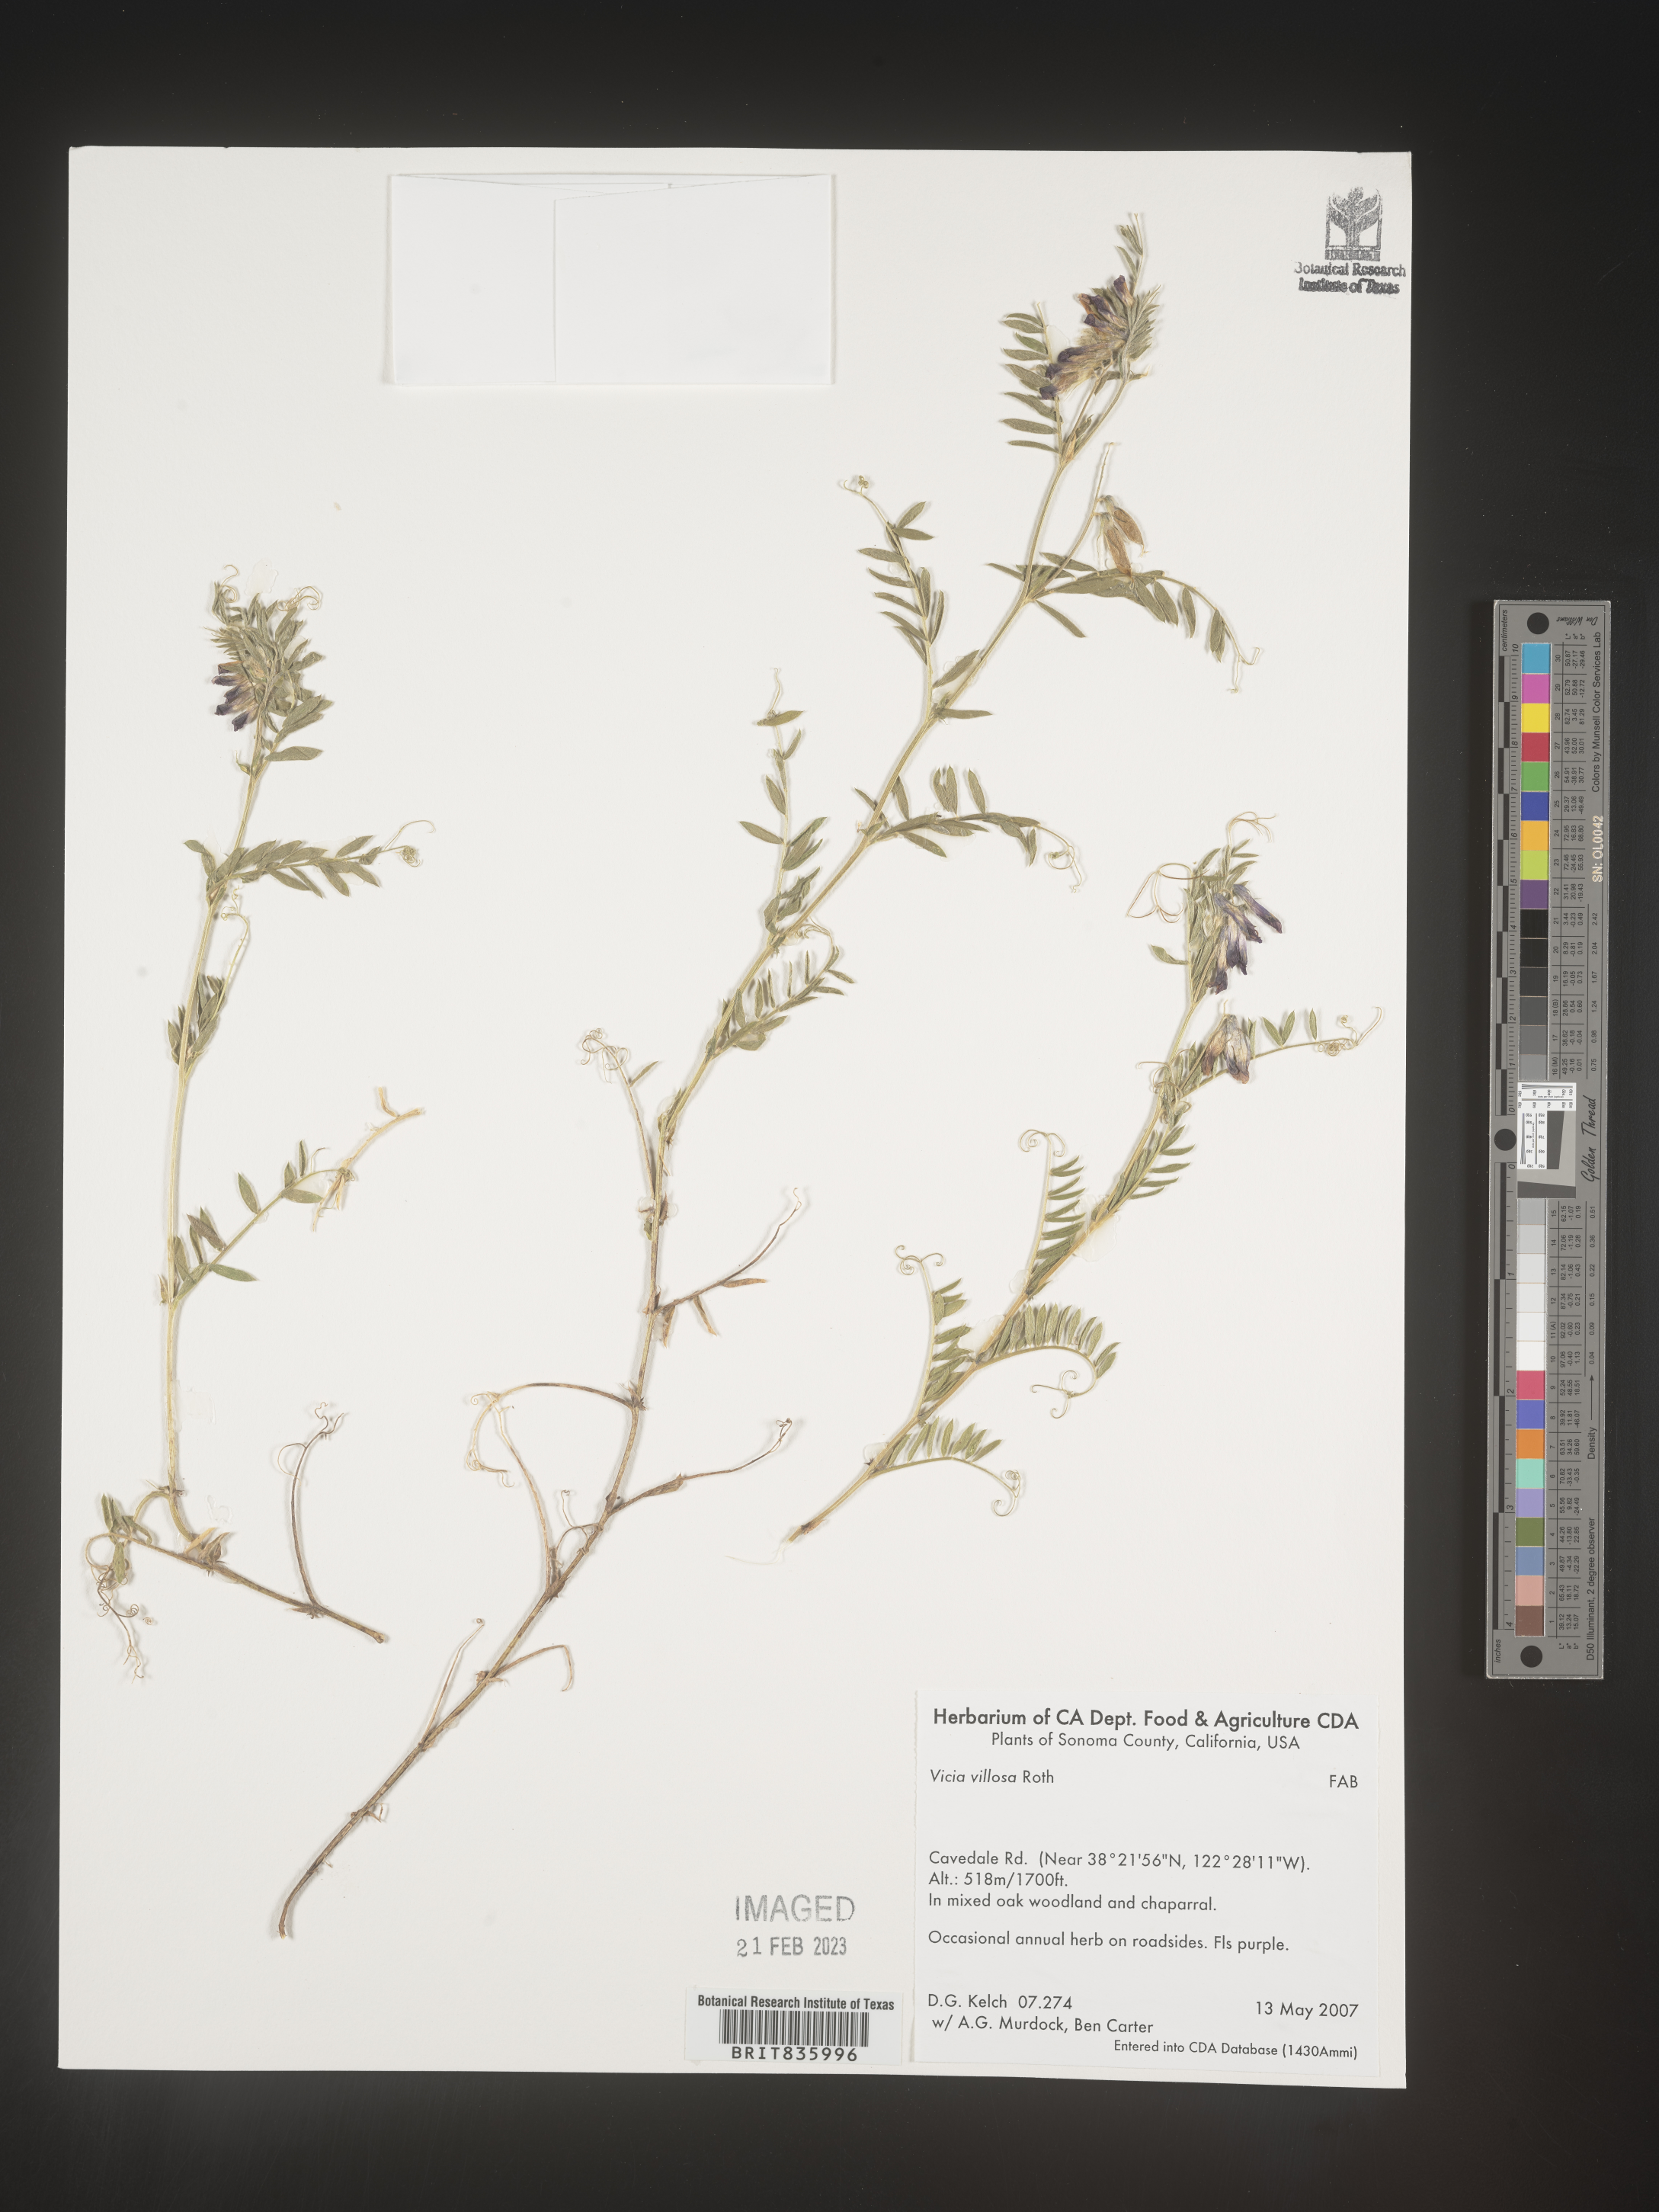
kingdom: Plantae
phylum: Tracheophyta
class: Magnoliopsida
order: Fabales
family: Fabaceae
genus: Vicia
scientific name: Vicia villosa
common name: Fodder vetch
